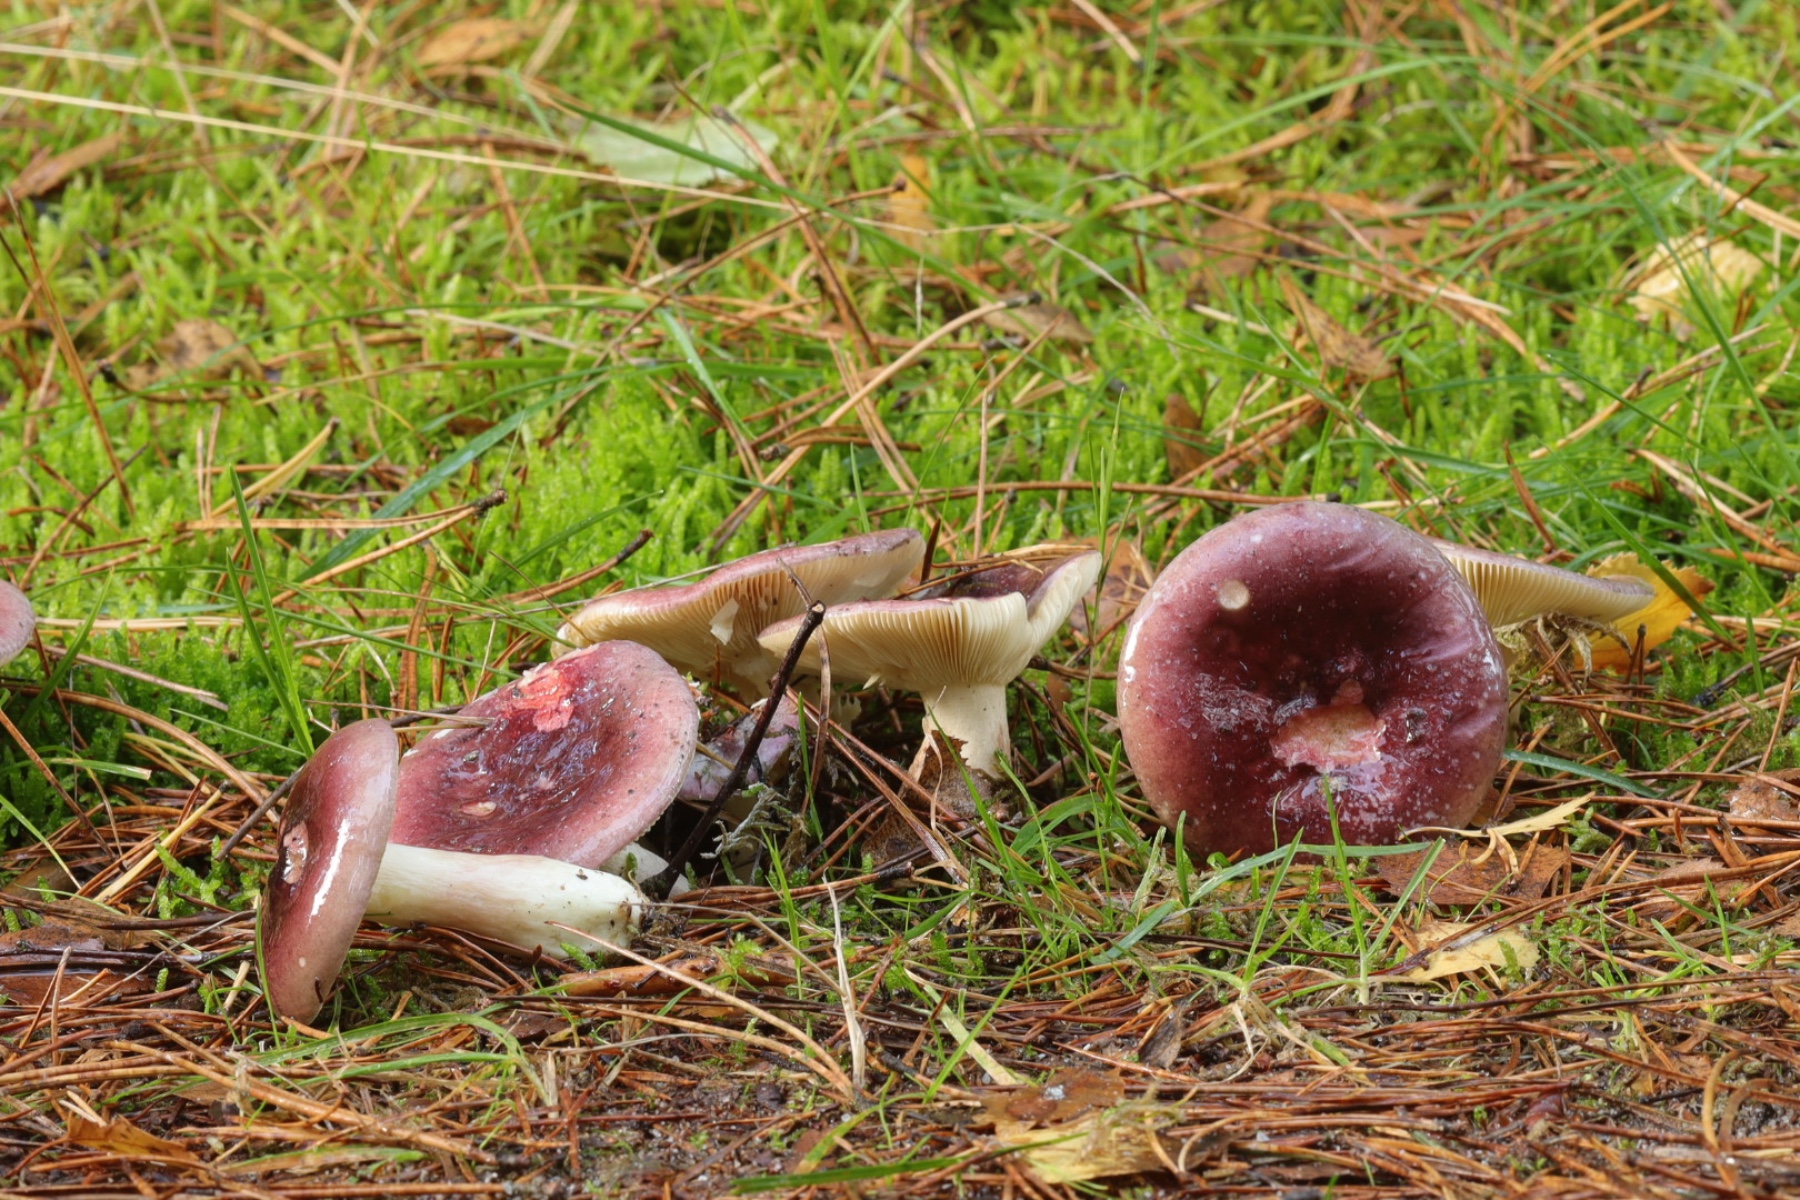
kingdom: Fungi
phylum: Basidiomycota
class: Agaricomycetes
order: Russulales
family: Russulaceae
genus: Russula
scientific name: Russula sardonia
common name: citronbladet skørhat
